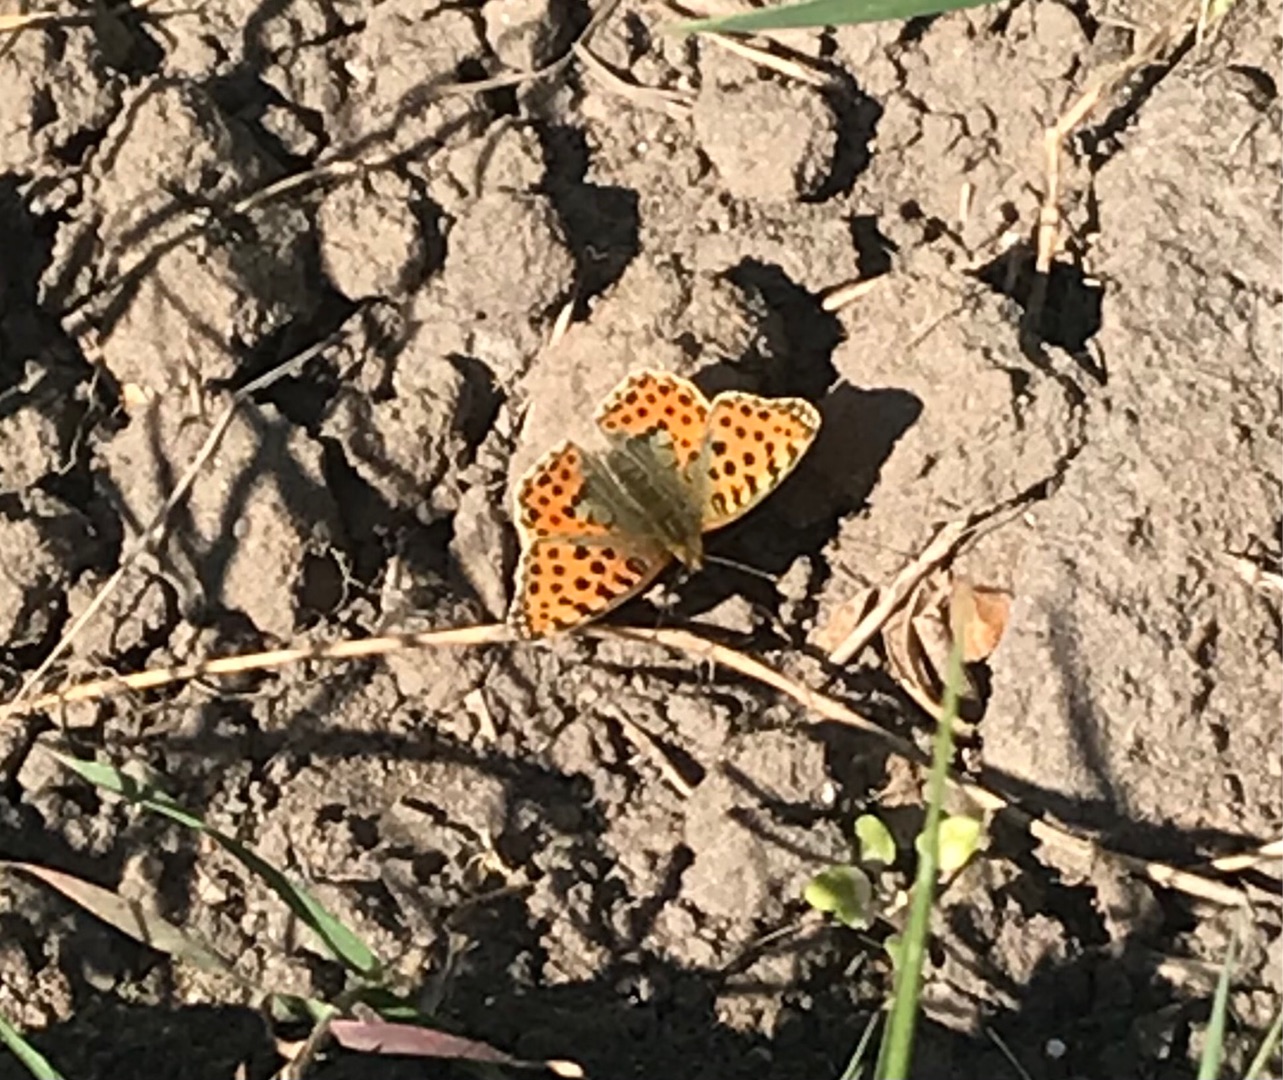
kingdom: Animalia
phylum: Arthropoda
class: Insecta
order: Lepidoptera
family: Nymphalidae
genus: Issoria
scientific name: Issoria lathonia
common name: Storplettet perlemorsommerfugl
